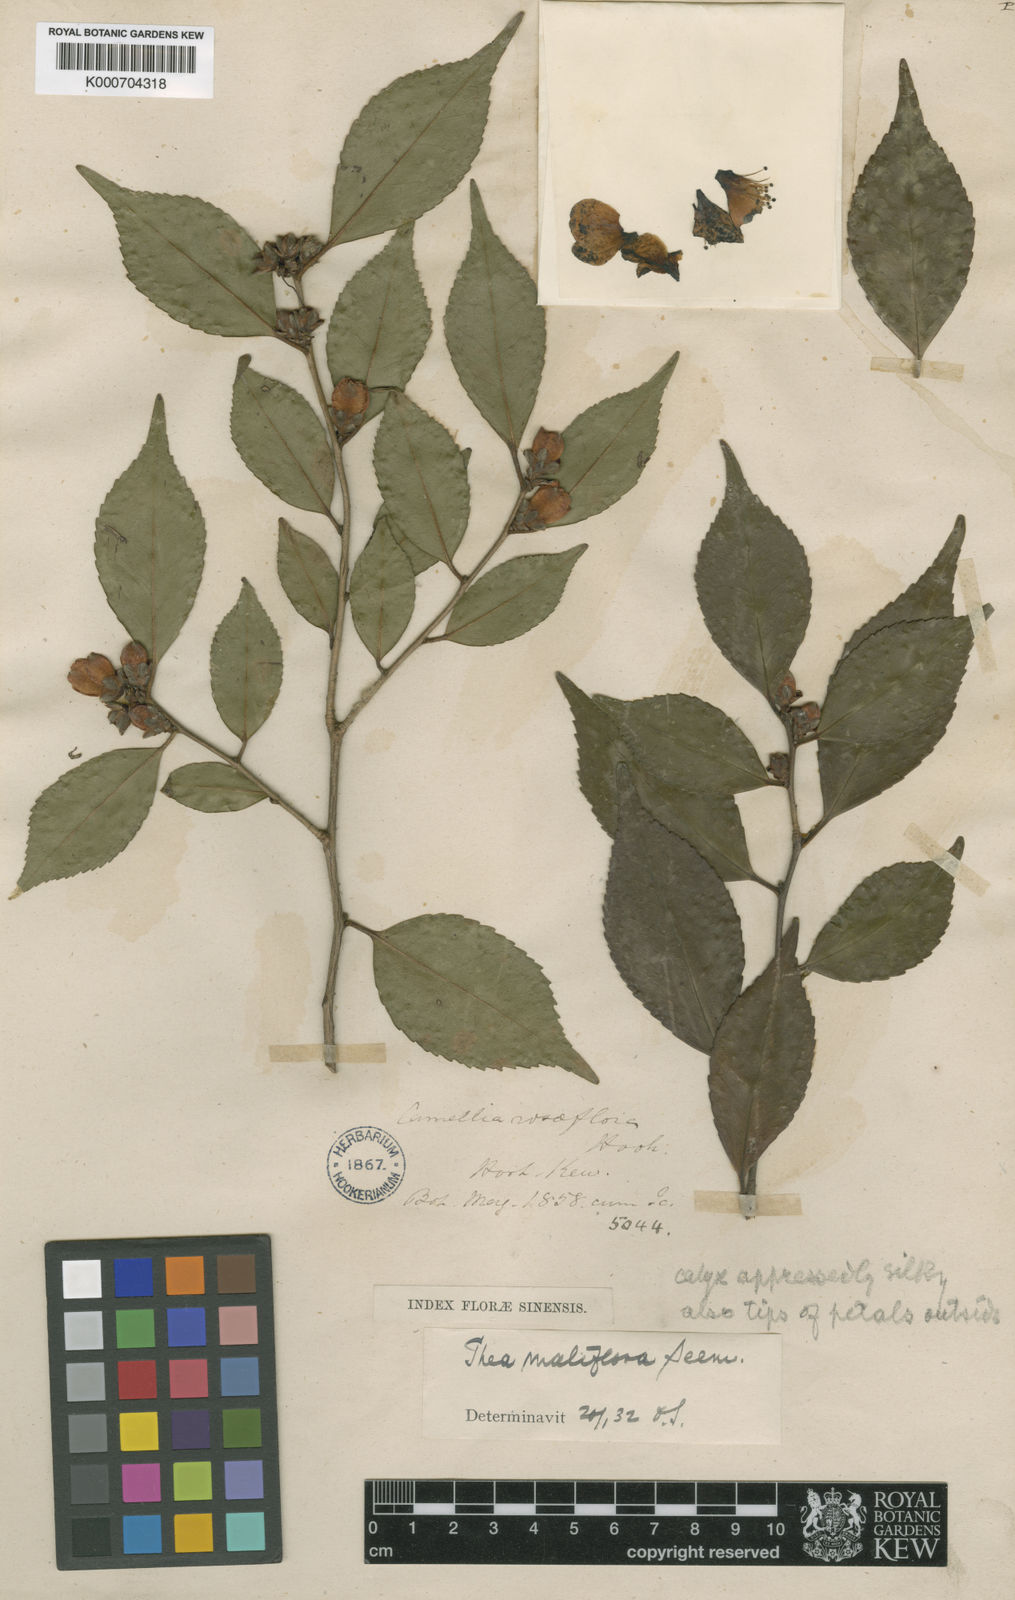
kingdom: Plantae
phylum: Tracheophyta
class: Magnoliopsida
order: Ericales
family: Theaceae
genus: Camellia
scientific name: Camellia rosiflora
